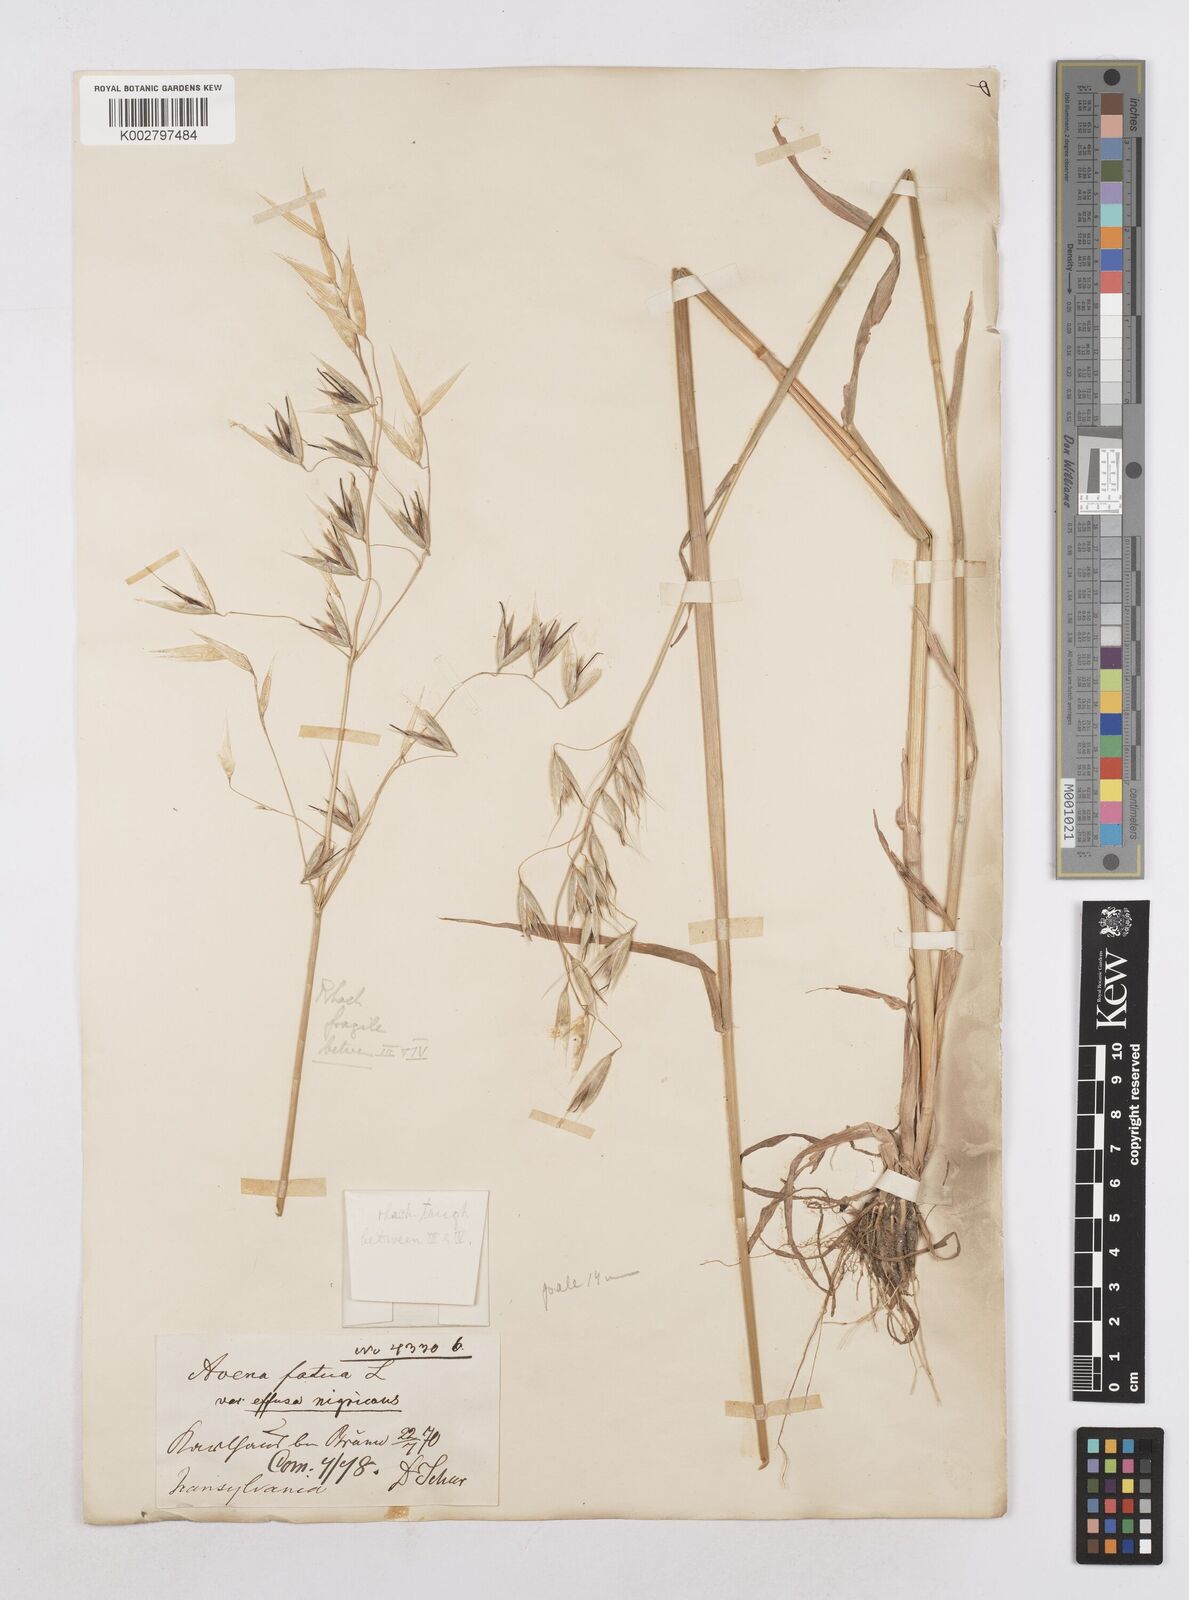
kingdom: Plantae
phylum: Tracheophyta
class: Liliopsida
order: Poales
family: Poaceae
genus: Avena
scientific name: Avena fatua
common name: Wild oat
